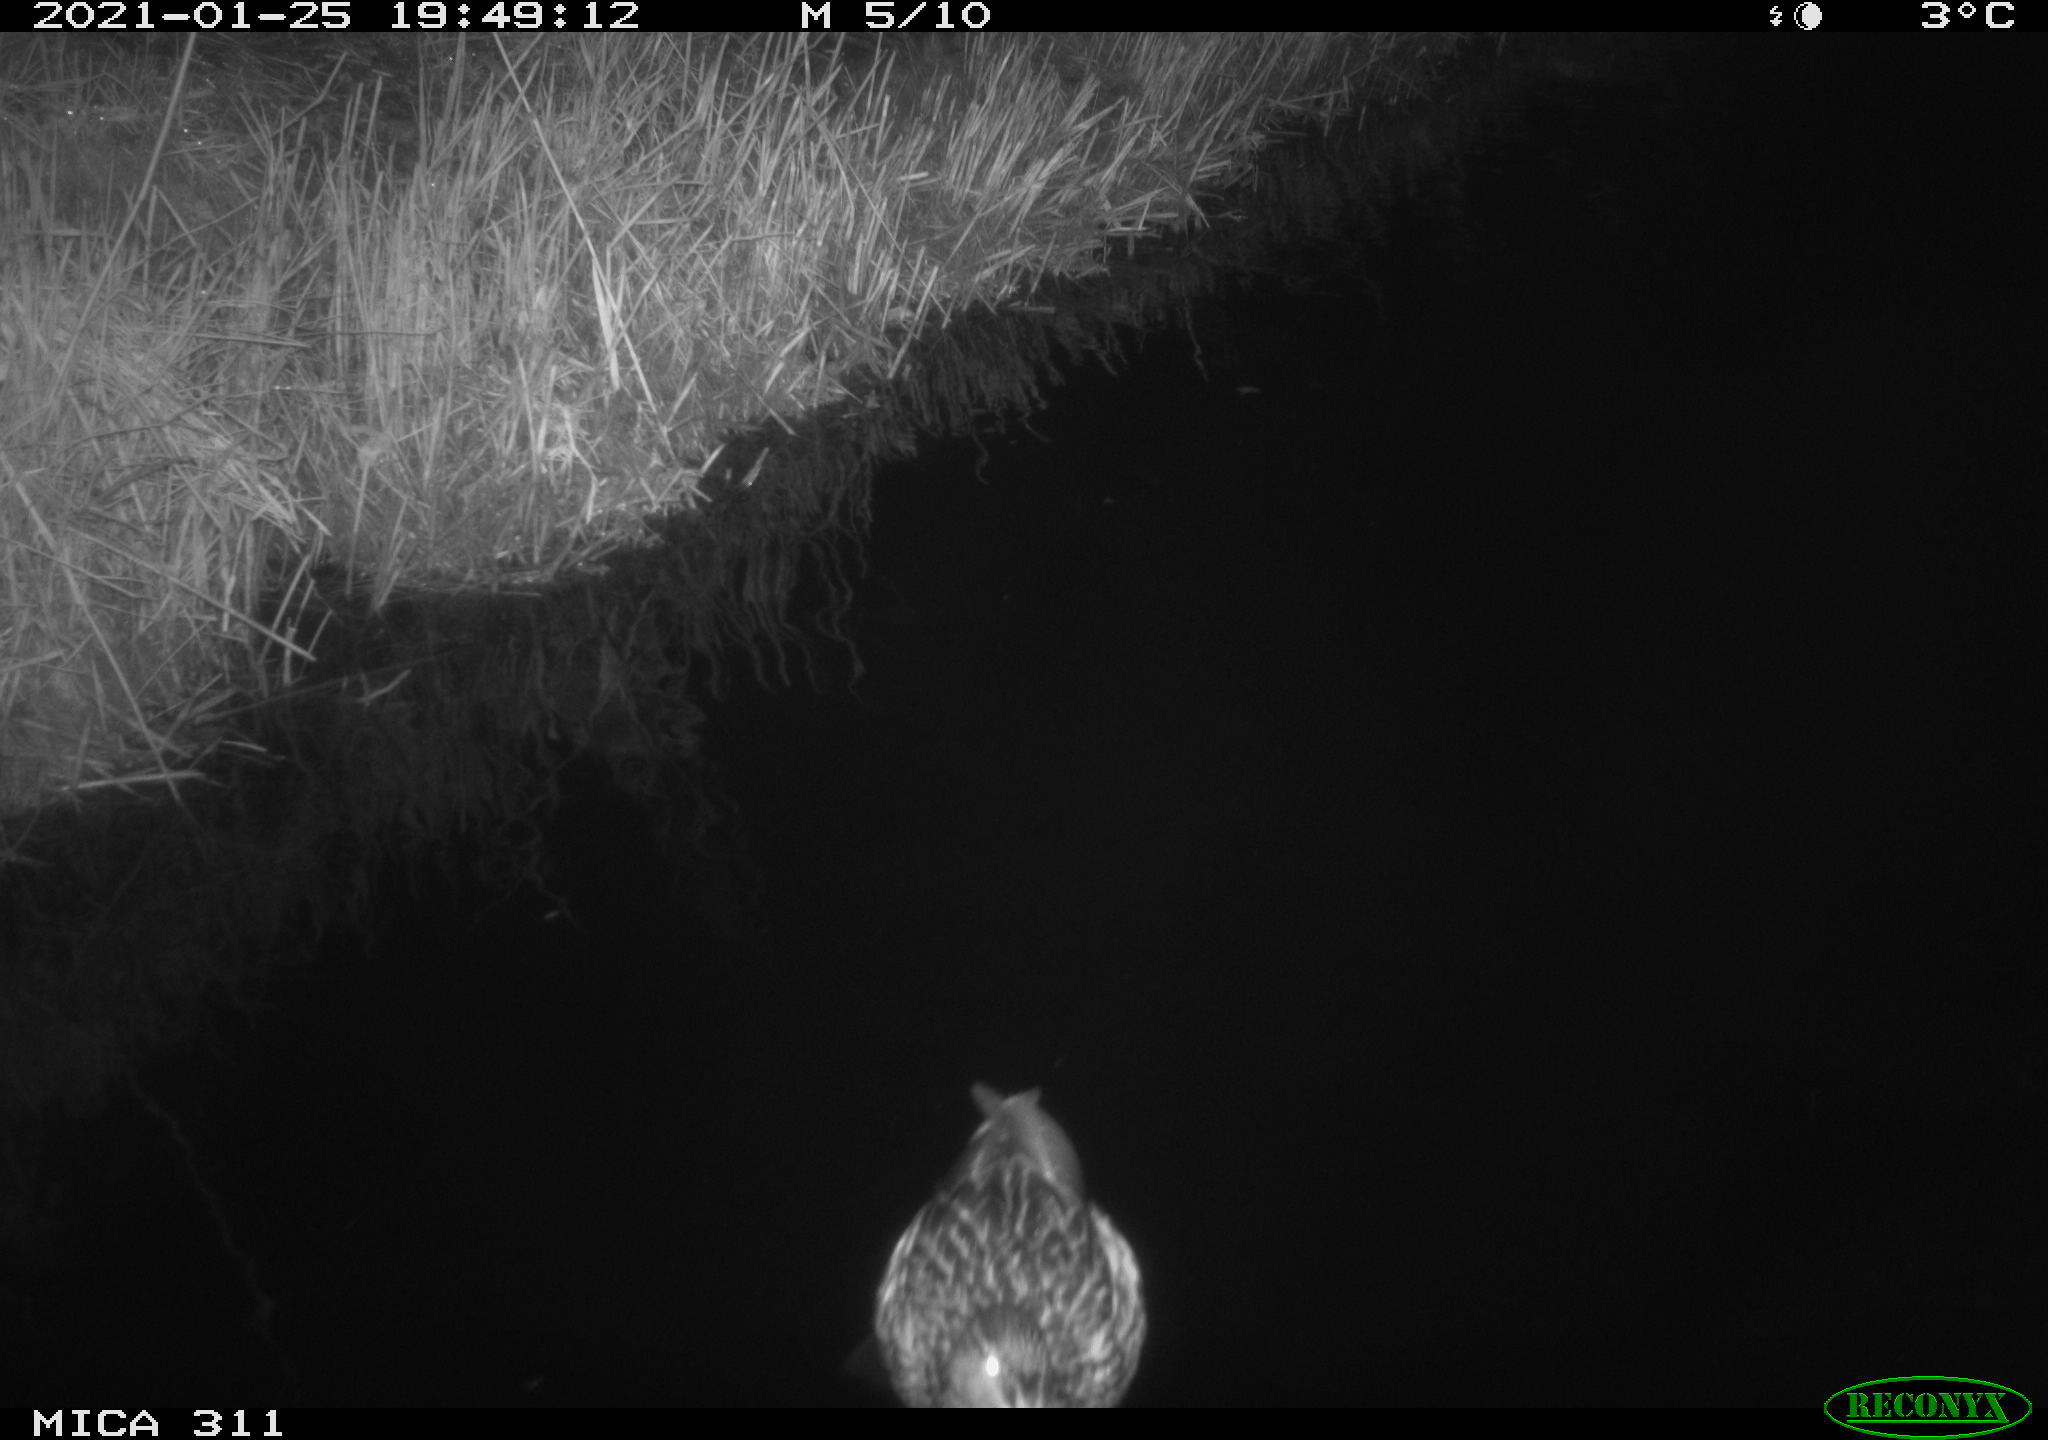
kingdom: Animalia
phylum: Chordata
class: Aves
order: Anseriformes
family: Anatidae
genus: Anas
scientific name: Anas
